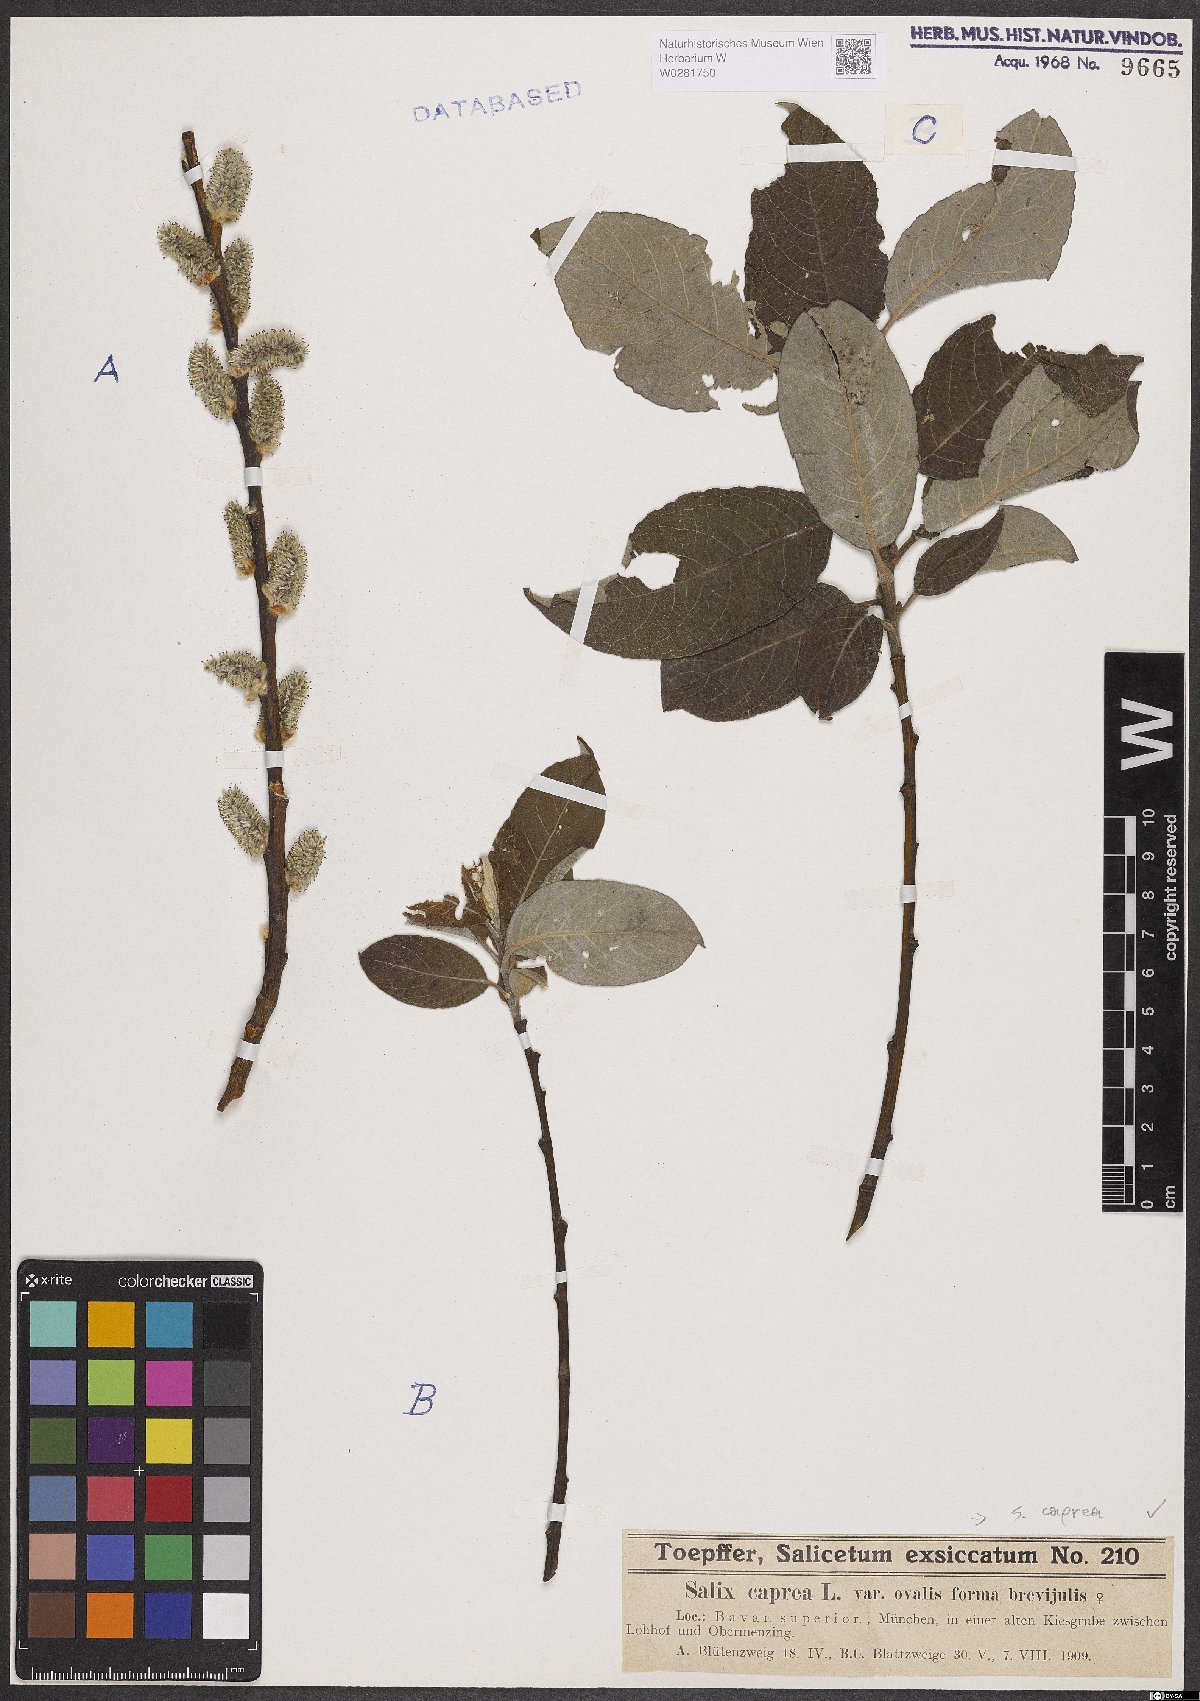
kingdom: Plantae
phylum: Tracheophyta
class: Magnoliopsida
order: Malpighiales
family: Salicaceae
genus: Salix
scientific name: Salix caprea
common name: Goat willow
